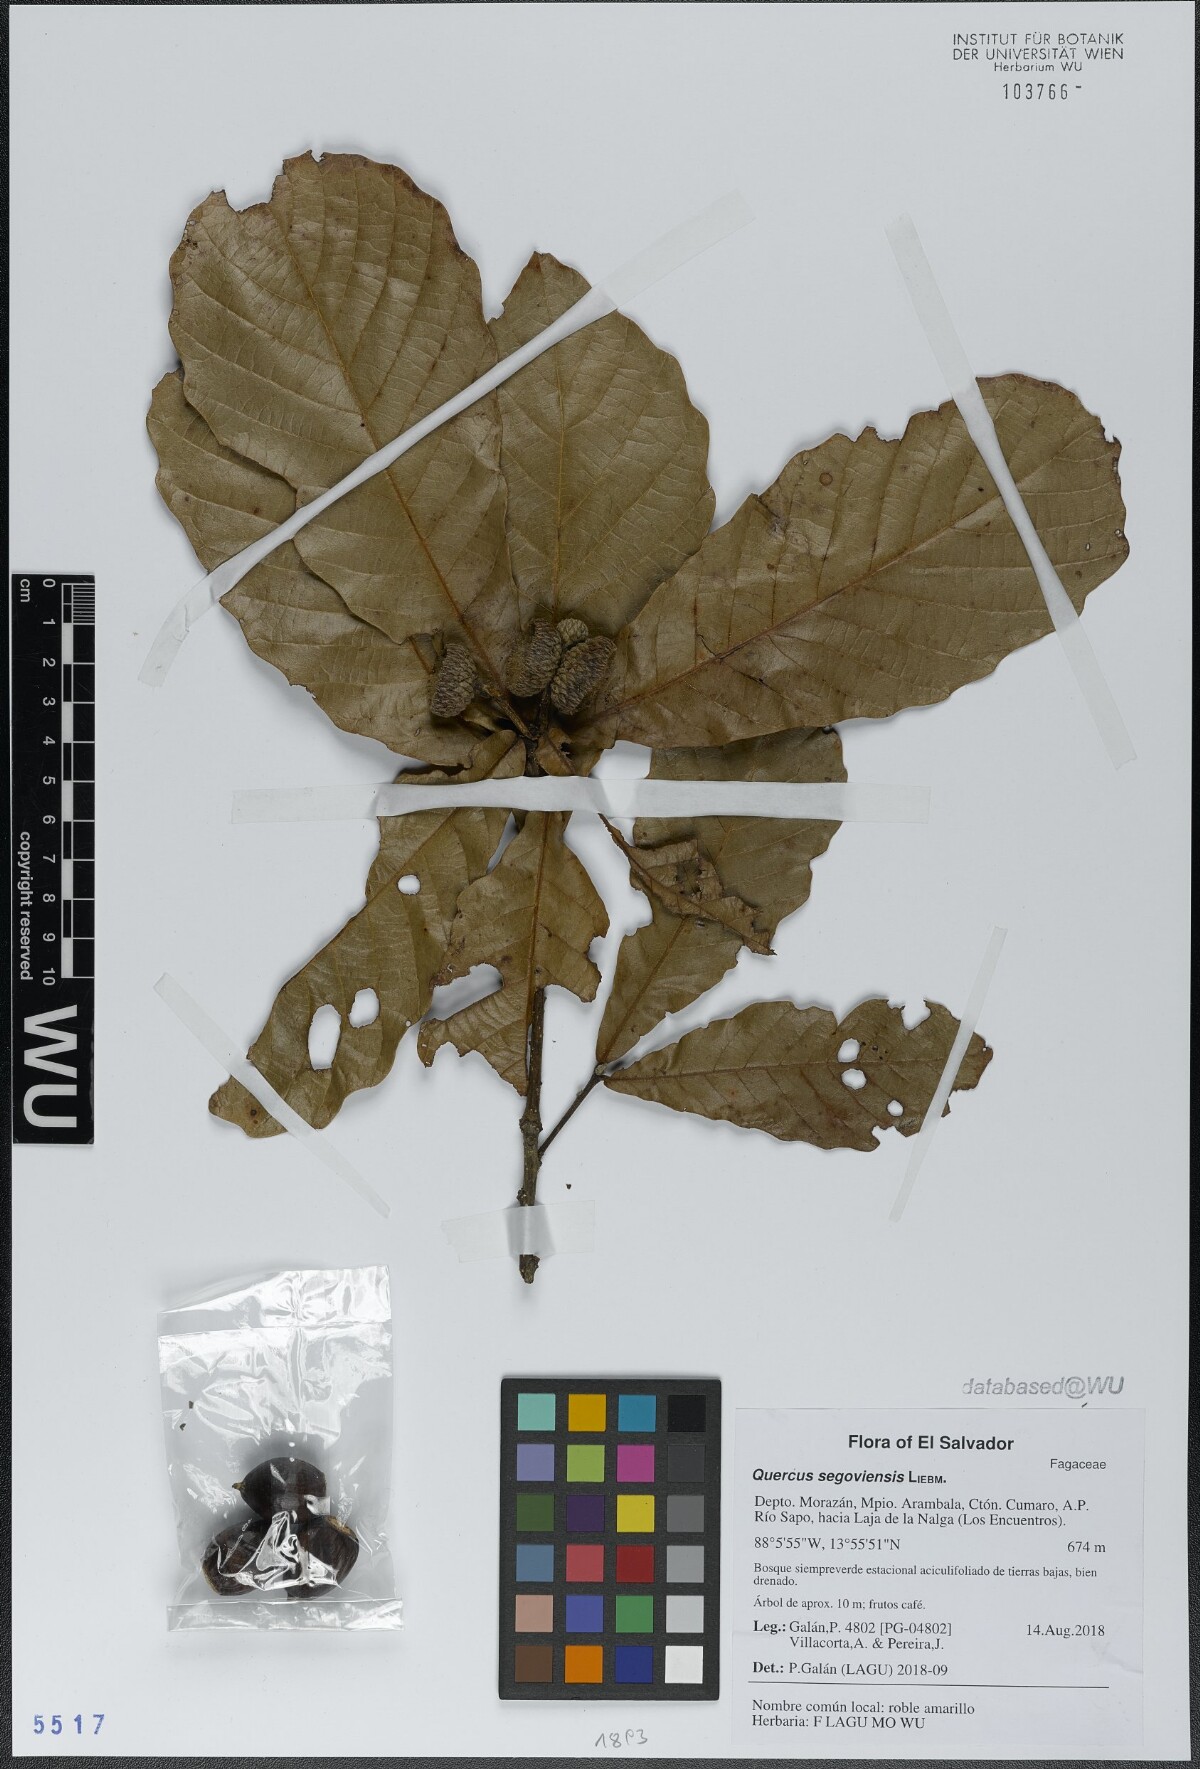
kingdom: Plantae
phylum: Tracheophyta
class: Magnoliopsida
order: Fagales
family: Fagaceae
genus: Quercus
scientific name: Quercus segoviensis
